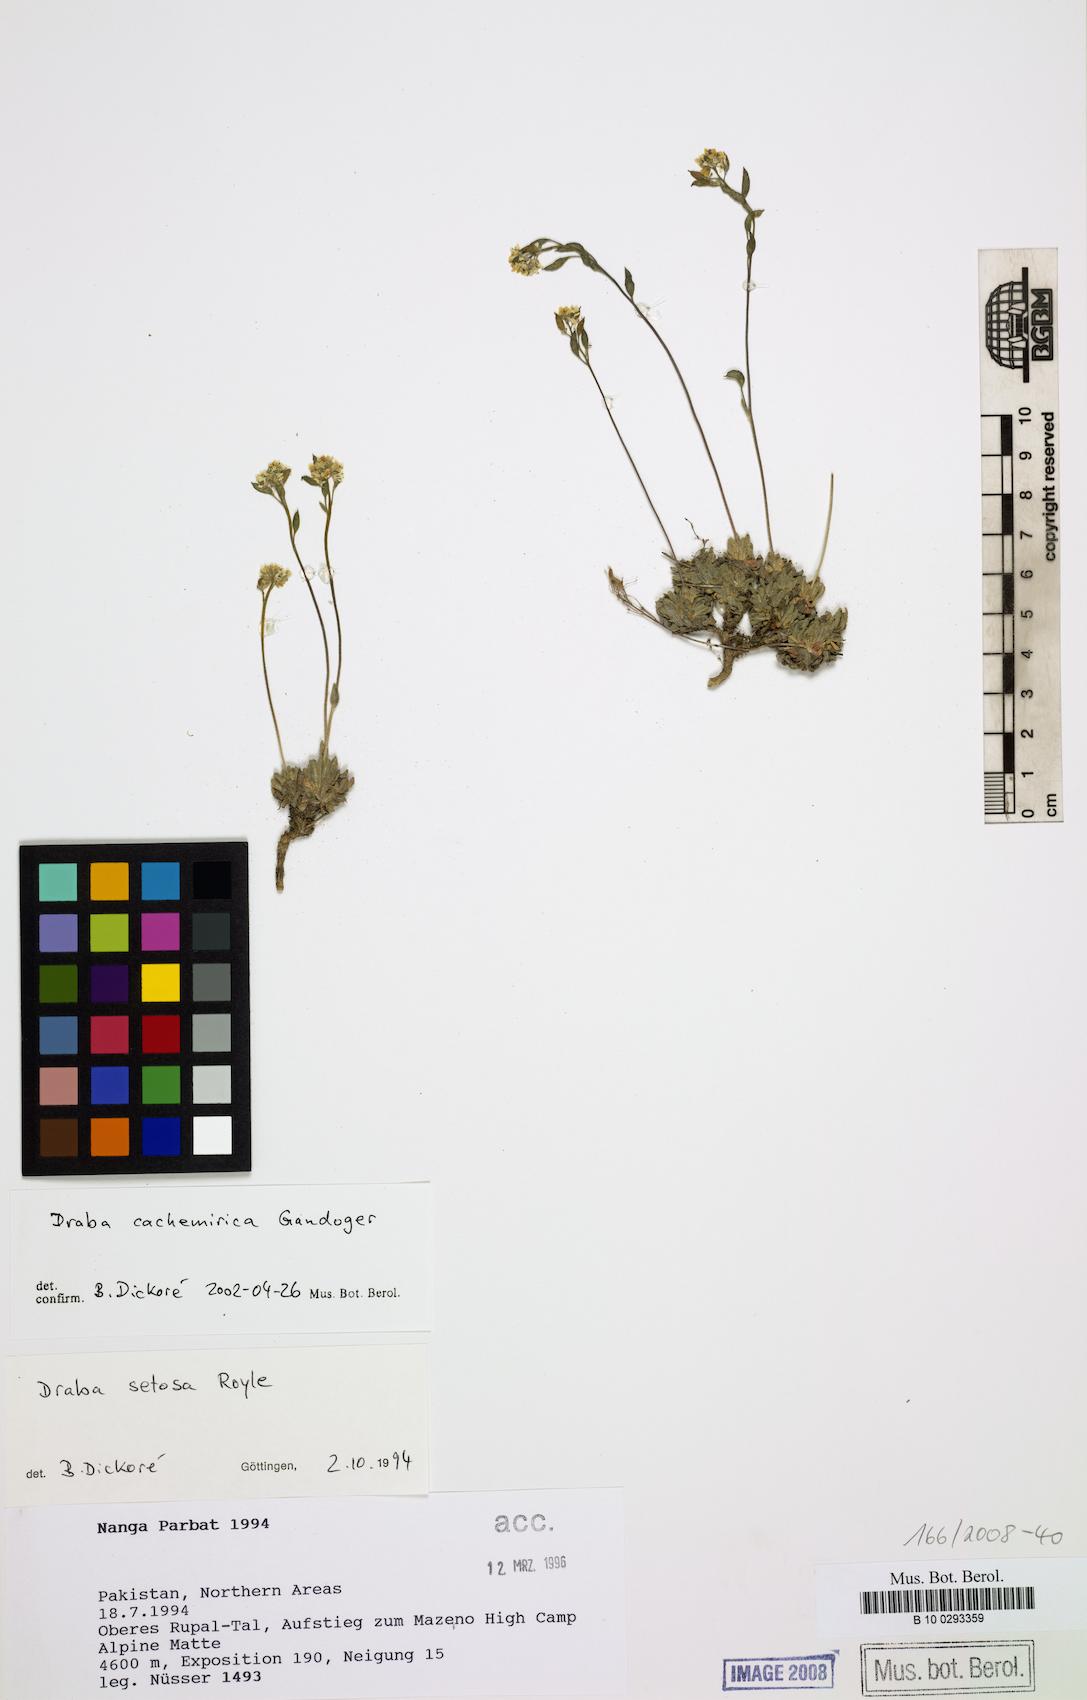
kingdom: Plantae
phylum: Tracheophyta
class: Magnoliopsida
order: Brassicales
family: Brassicaceae
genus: Draba
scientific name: Draba cachemirica
